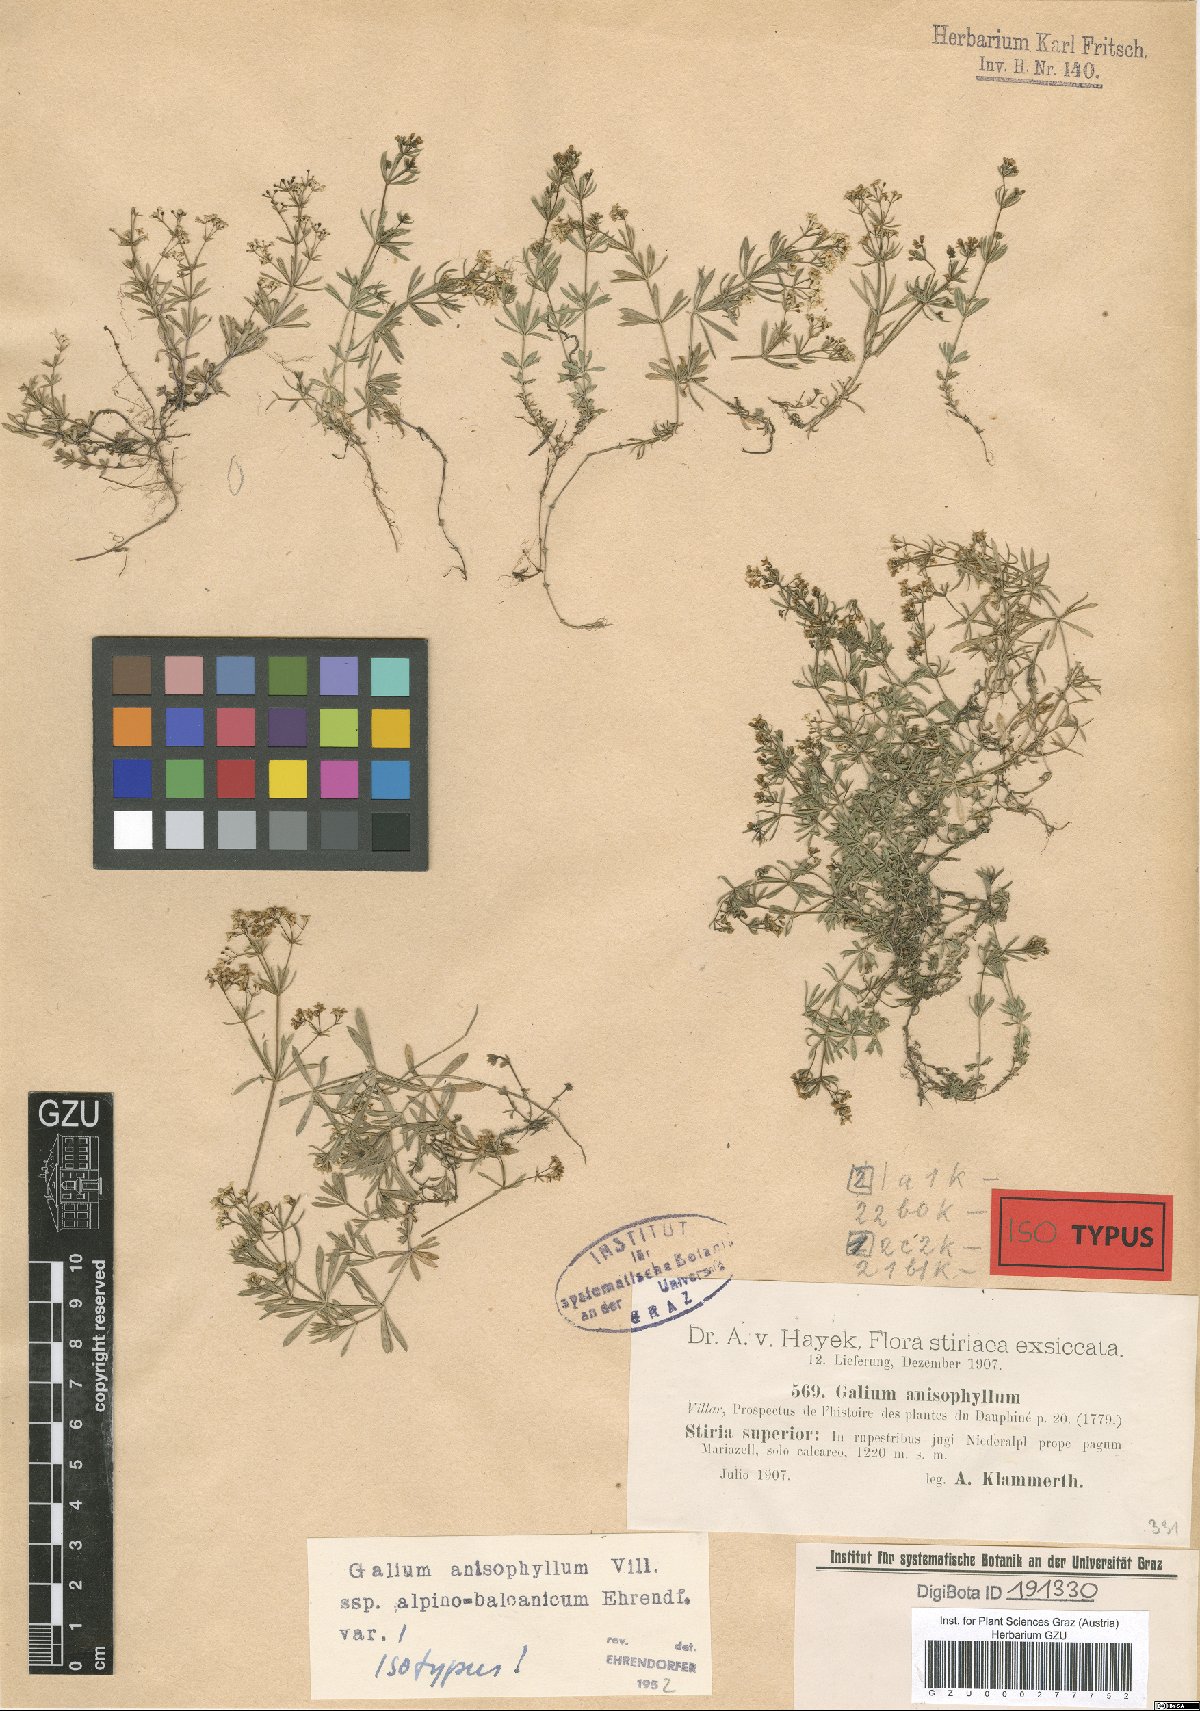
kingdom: Plantae
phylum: Tracheophyta
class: Magnoliopsida
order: Gentianales
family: Rubiaceae
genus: Galium
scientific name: Galium anisophyllon
